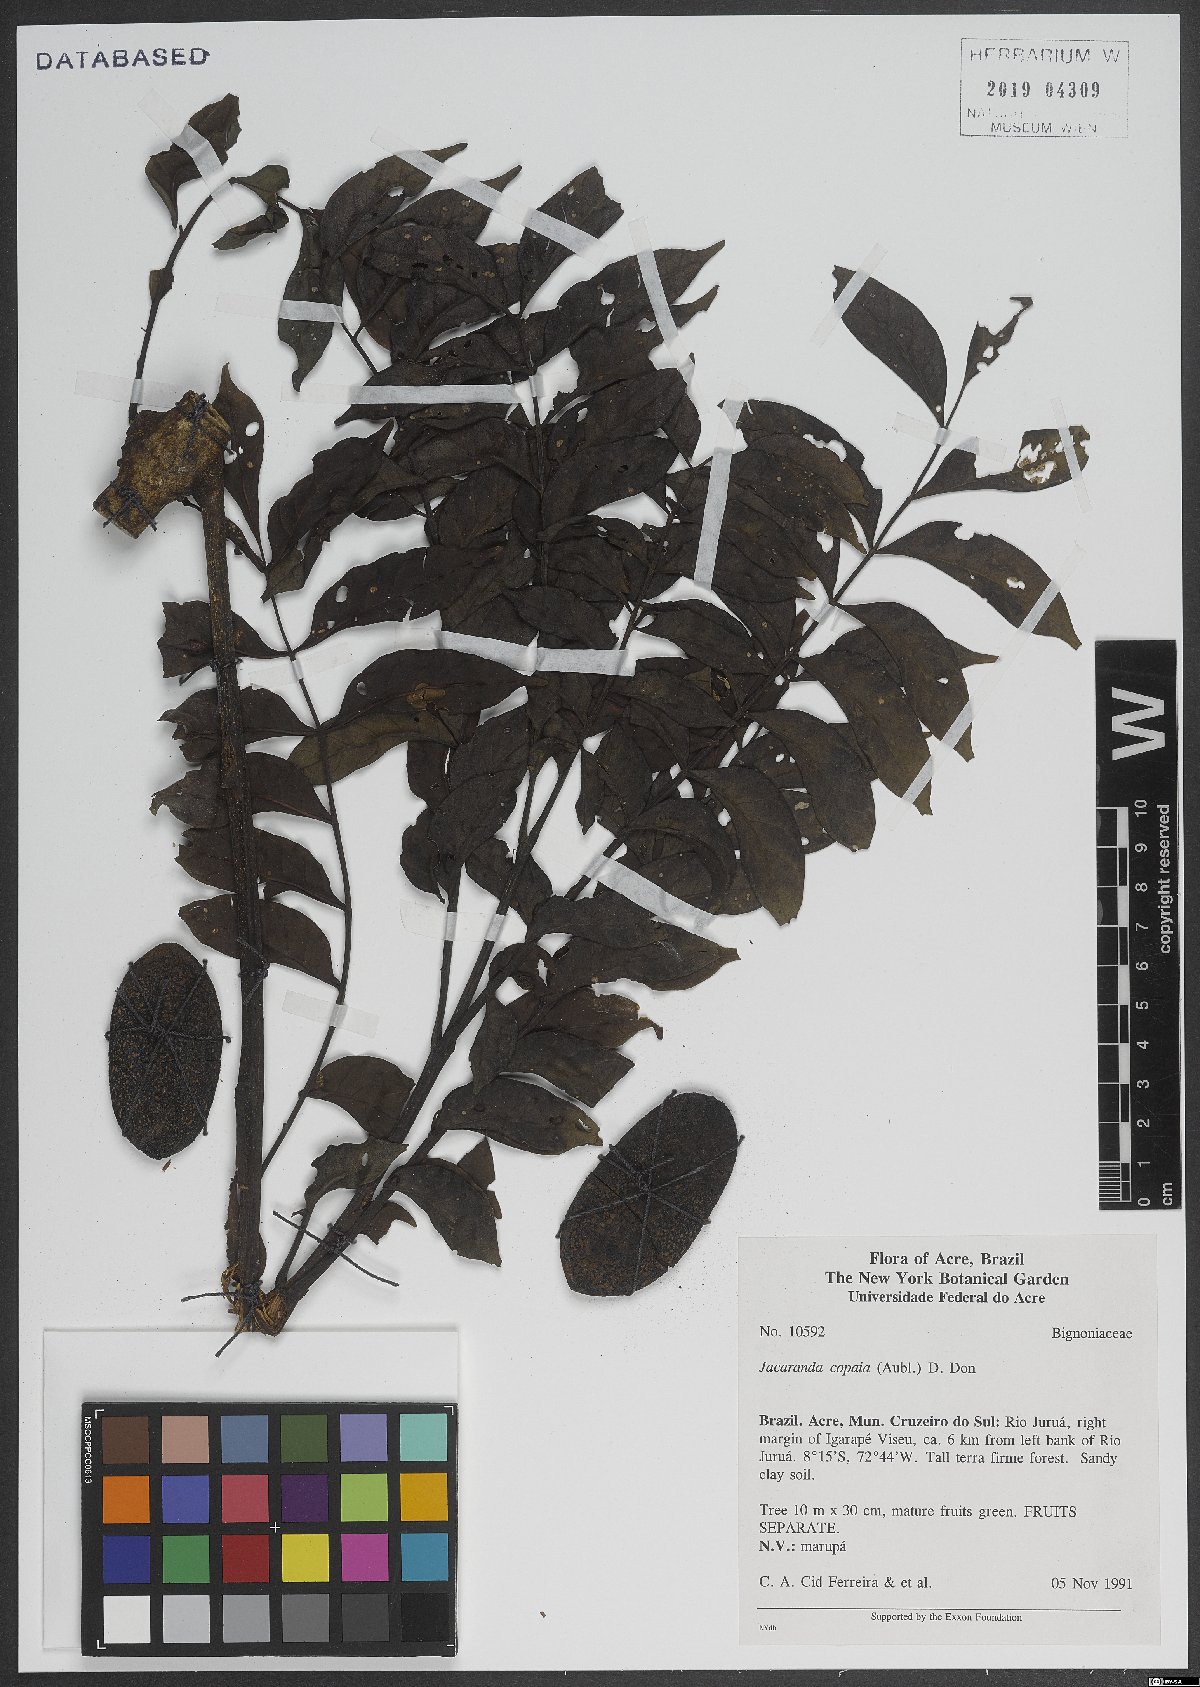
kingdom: Plantae
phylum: Tracheophyta
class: Magnoliopsida
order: Lamiales
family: Bignoniaceae
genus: Jacaranda
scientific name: Jacaranda copaia
